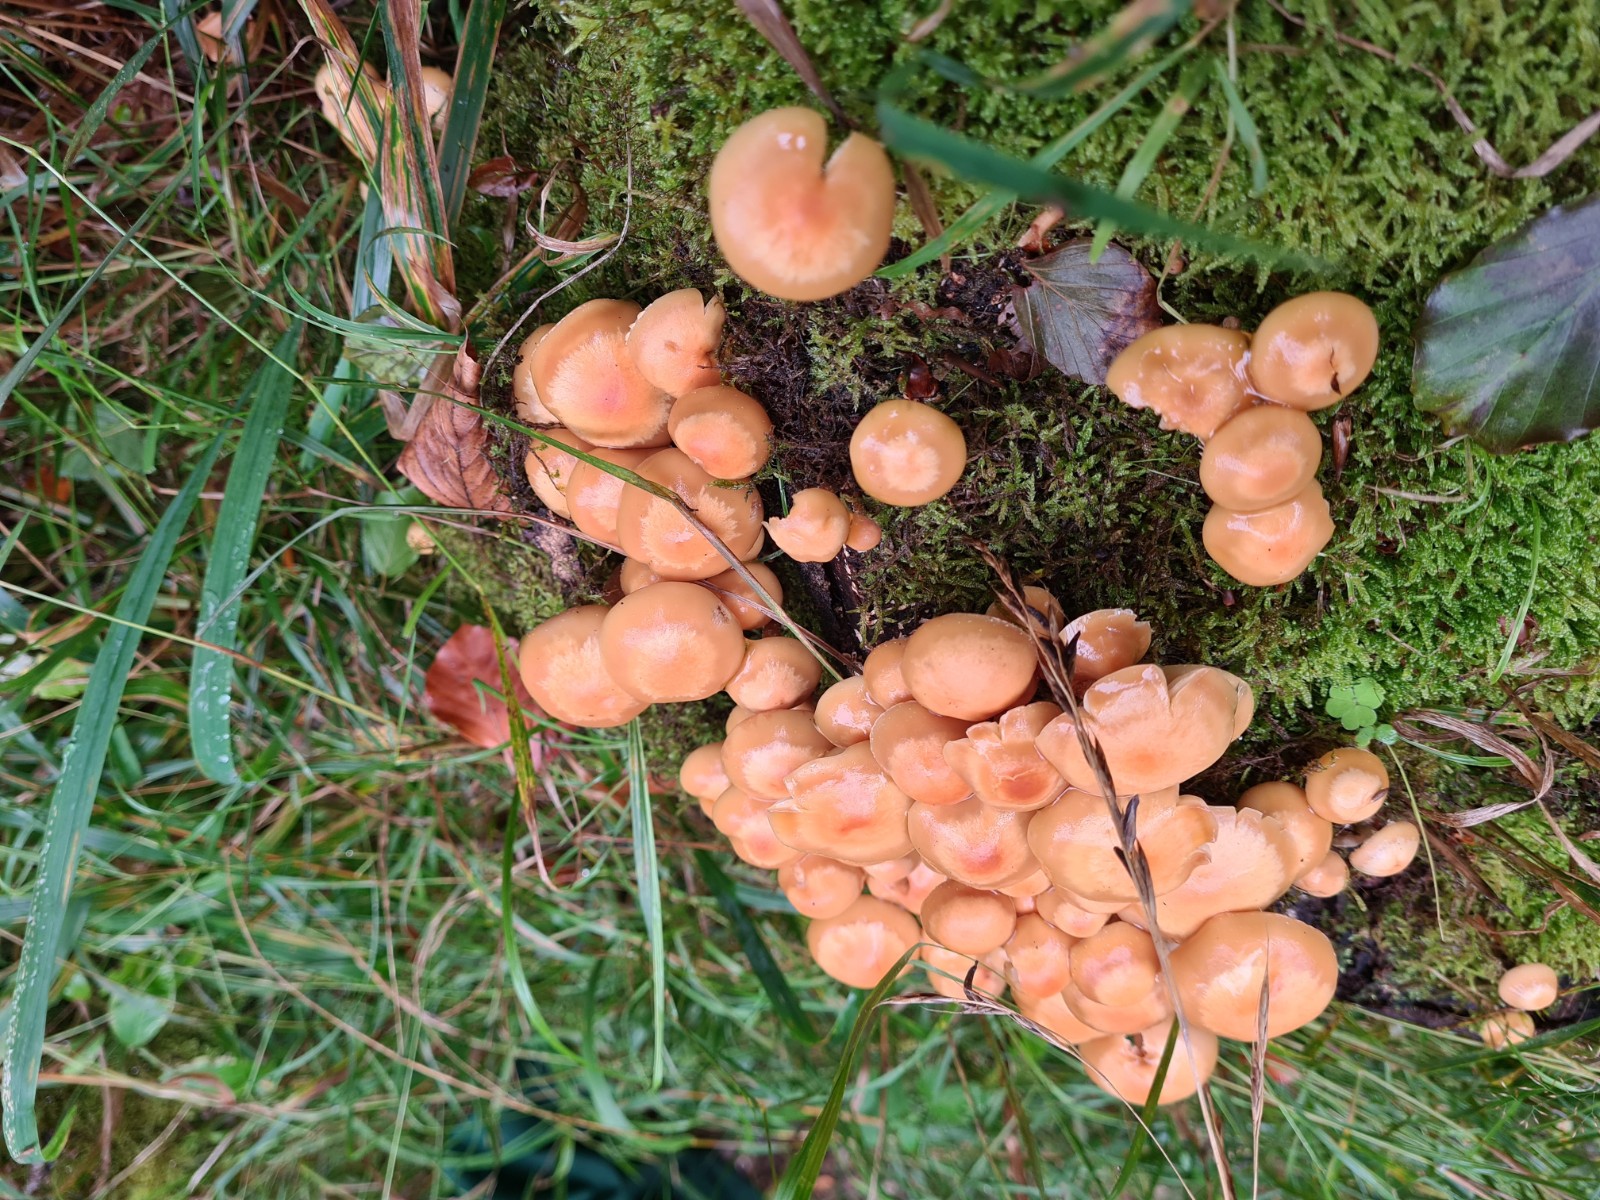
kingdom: Fungi
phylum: Basidiomycota
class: Agaricomycetes
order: Agaricales
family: Strophariaceae
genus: Kuehneromyces
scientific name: Kuehneromyces mutabilis
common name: foranderlig skælhat
